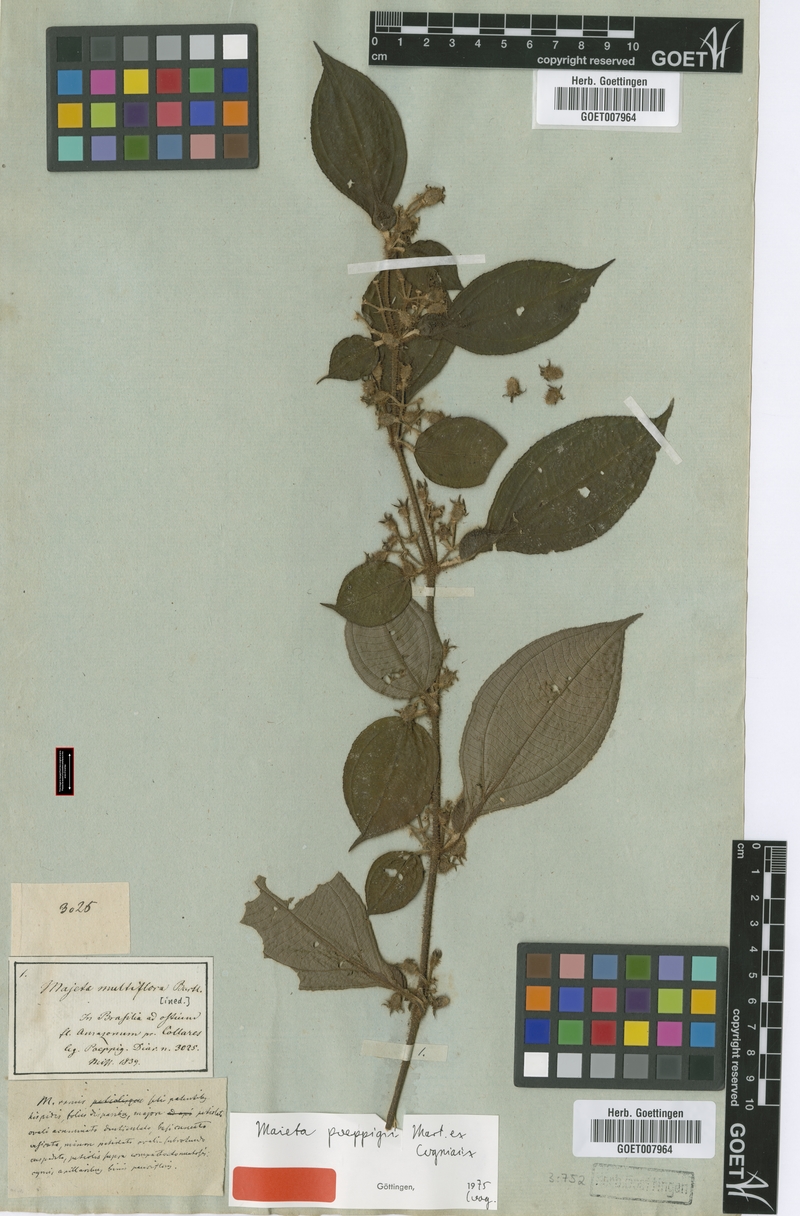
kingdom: Plantae
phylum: Tracheophyta
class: Magnoliopsida
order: Myrtales
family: Melastomataceae
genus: Miconia
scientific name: Miconia alternidomatia
